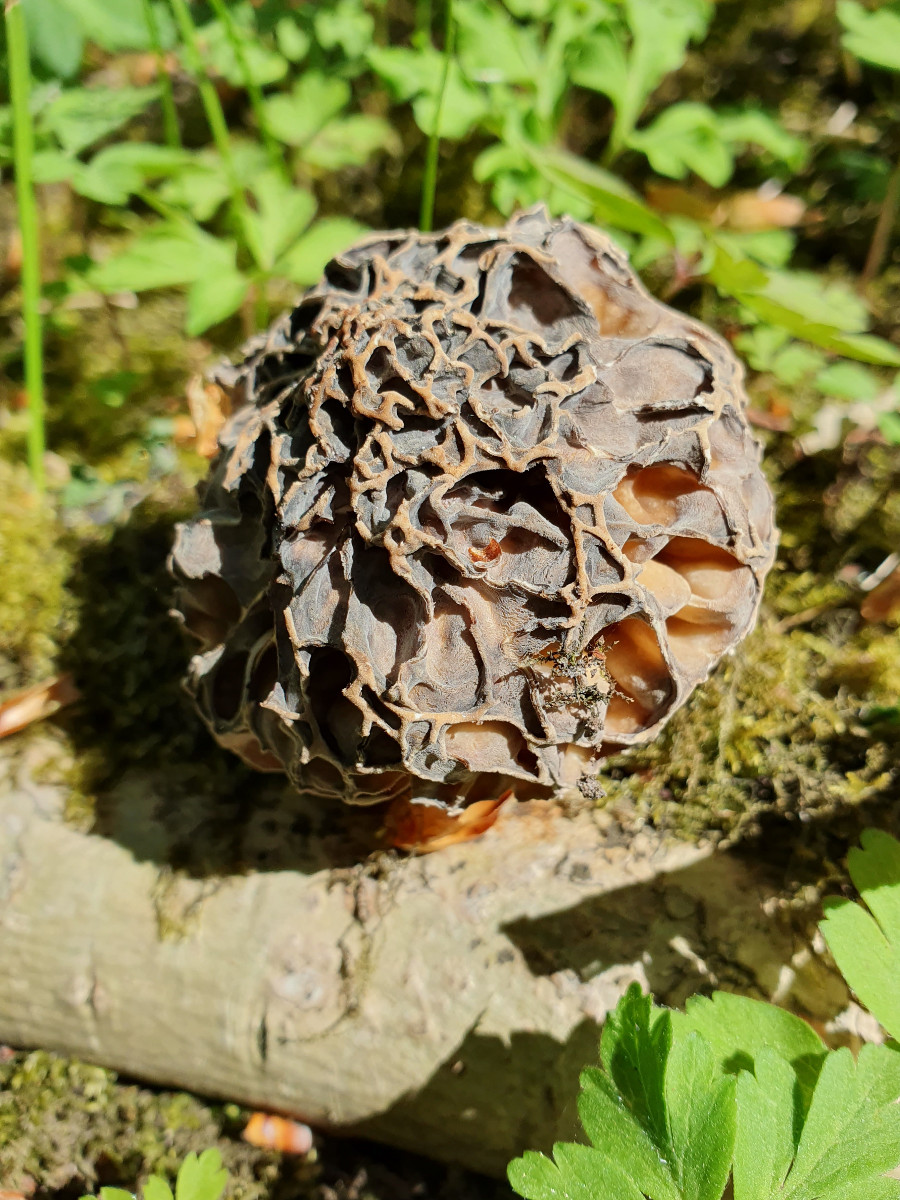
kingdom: Fungi
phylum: Ascomycota
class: Pezizomycetes
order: Pezizales
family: Morchellaceae
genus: Morchella
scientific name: Morchella
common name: morkel
